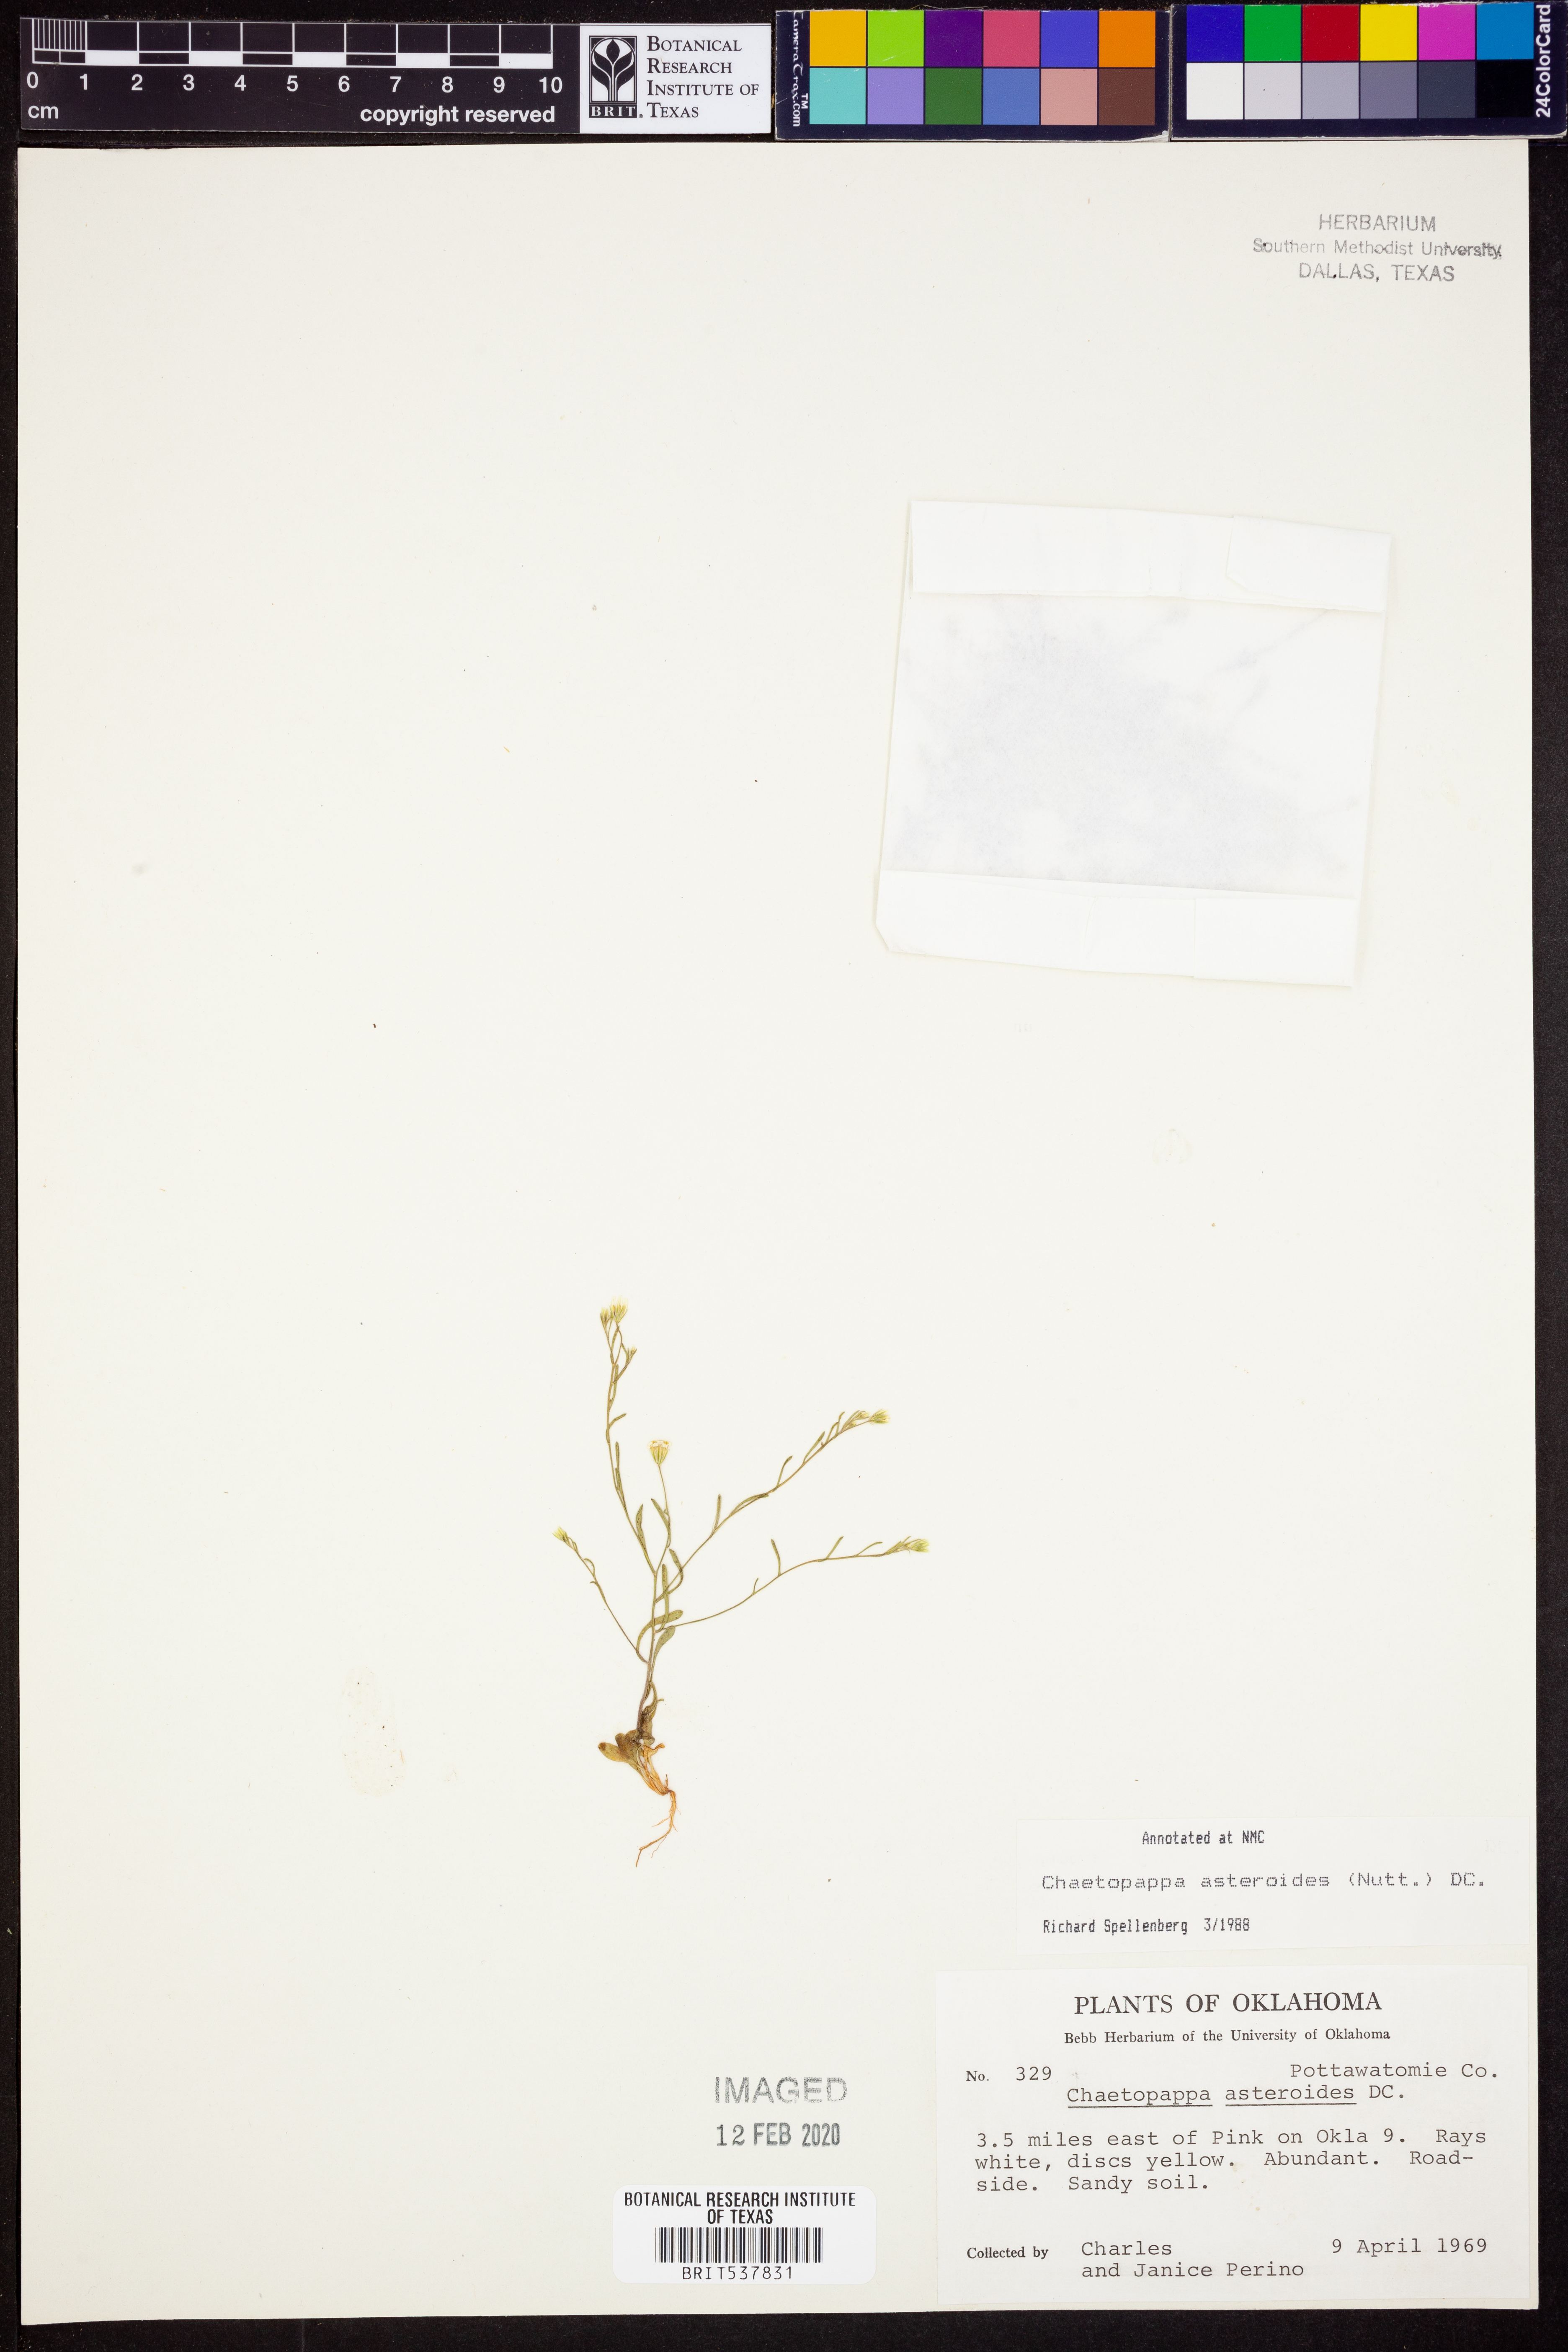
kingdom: Plantae
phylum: Tracheophyta
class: Magnoliopsida
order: Asterales
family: Asteraceae
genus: Chaetopappa
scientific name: Chaetopappa asteroides
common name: Tiny lazy daisy
